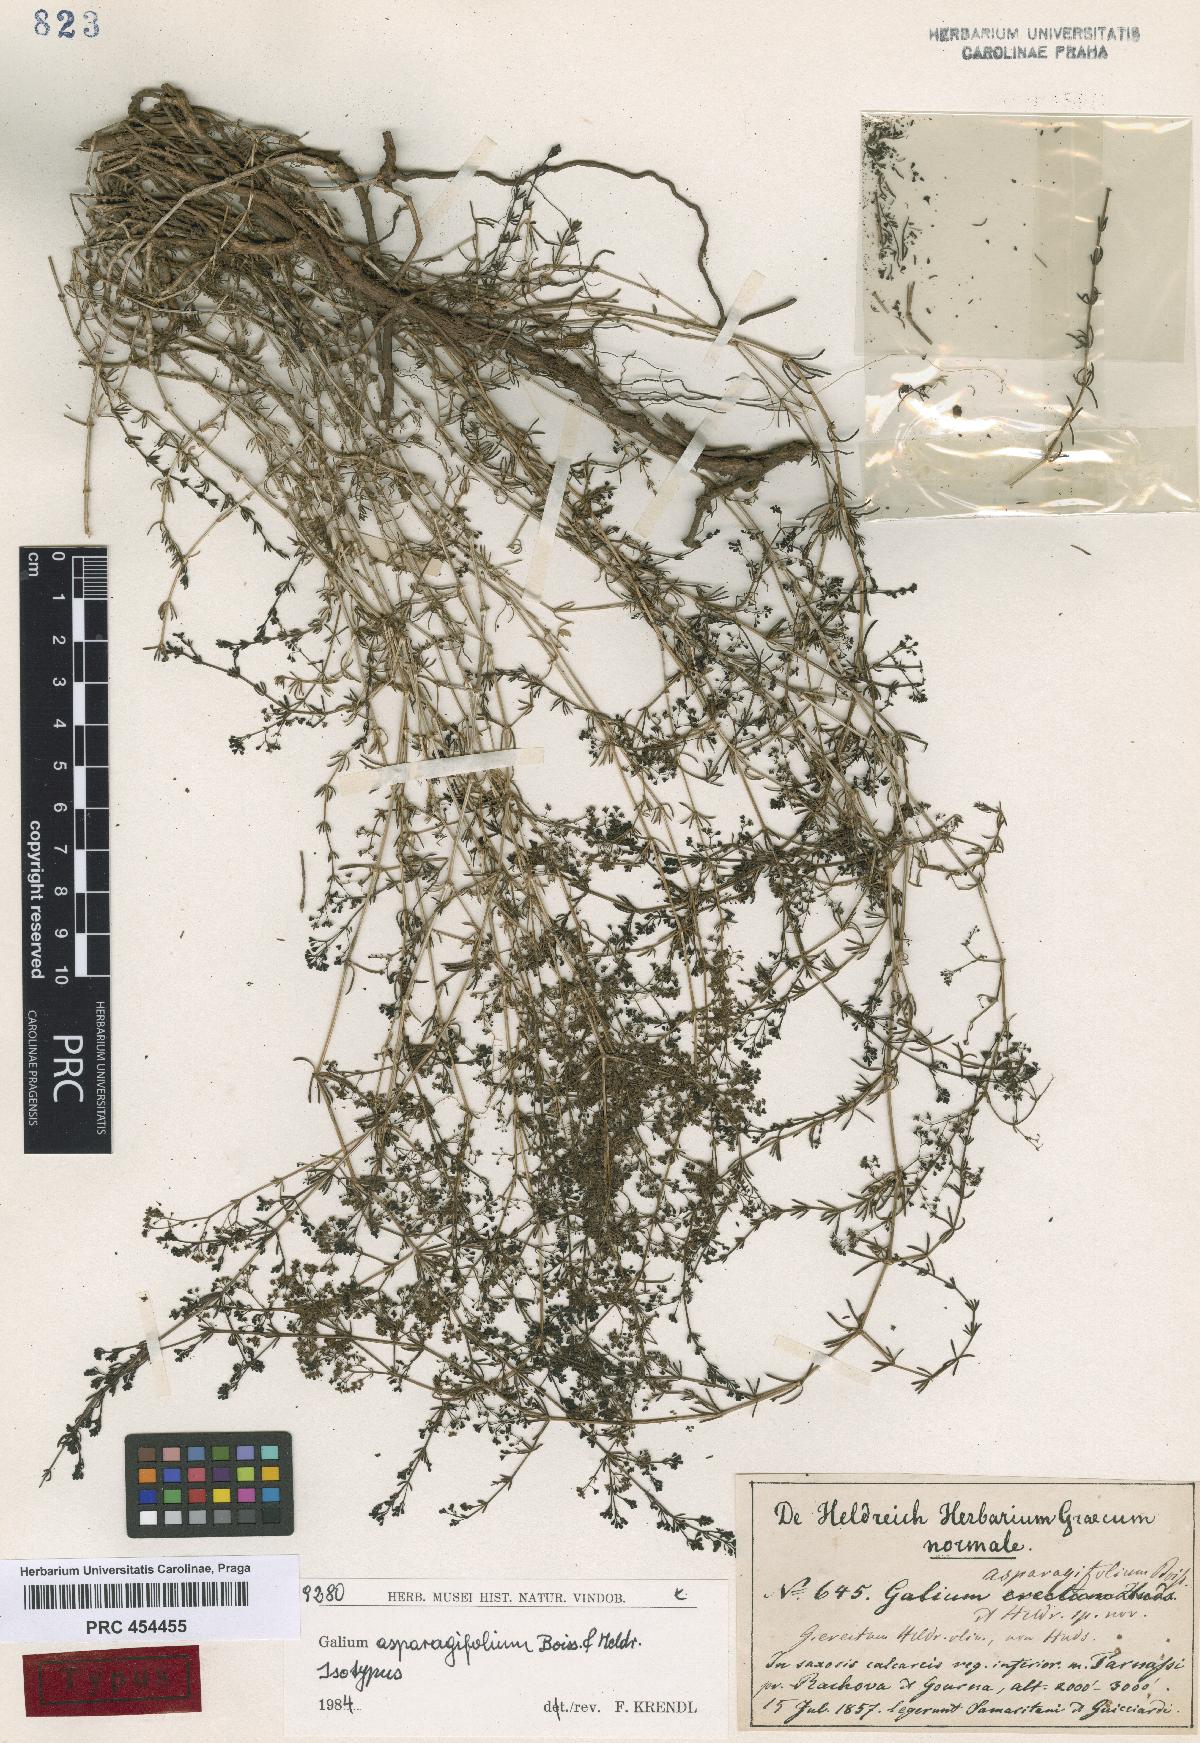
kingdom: Plantae
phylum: Tracheophyta
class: Magnoliopsida
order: Gentianales
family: Rubiaceae
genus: Galium
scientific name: Galium flavescens
